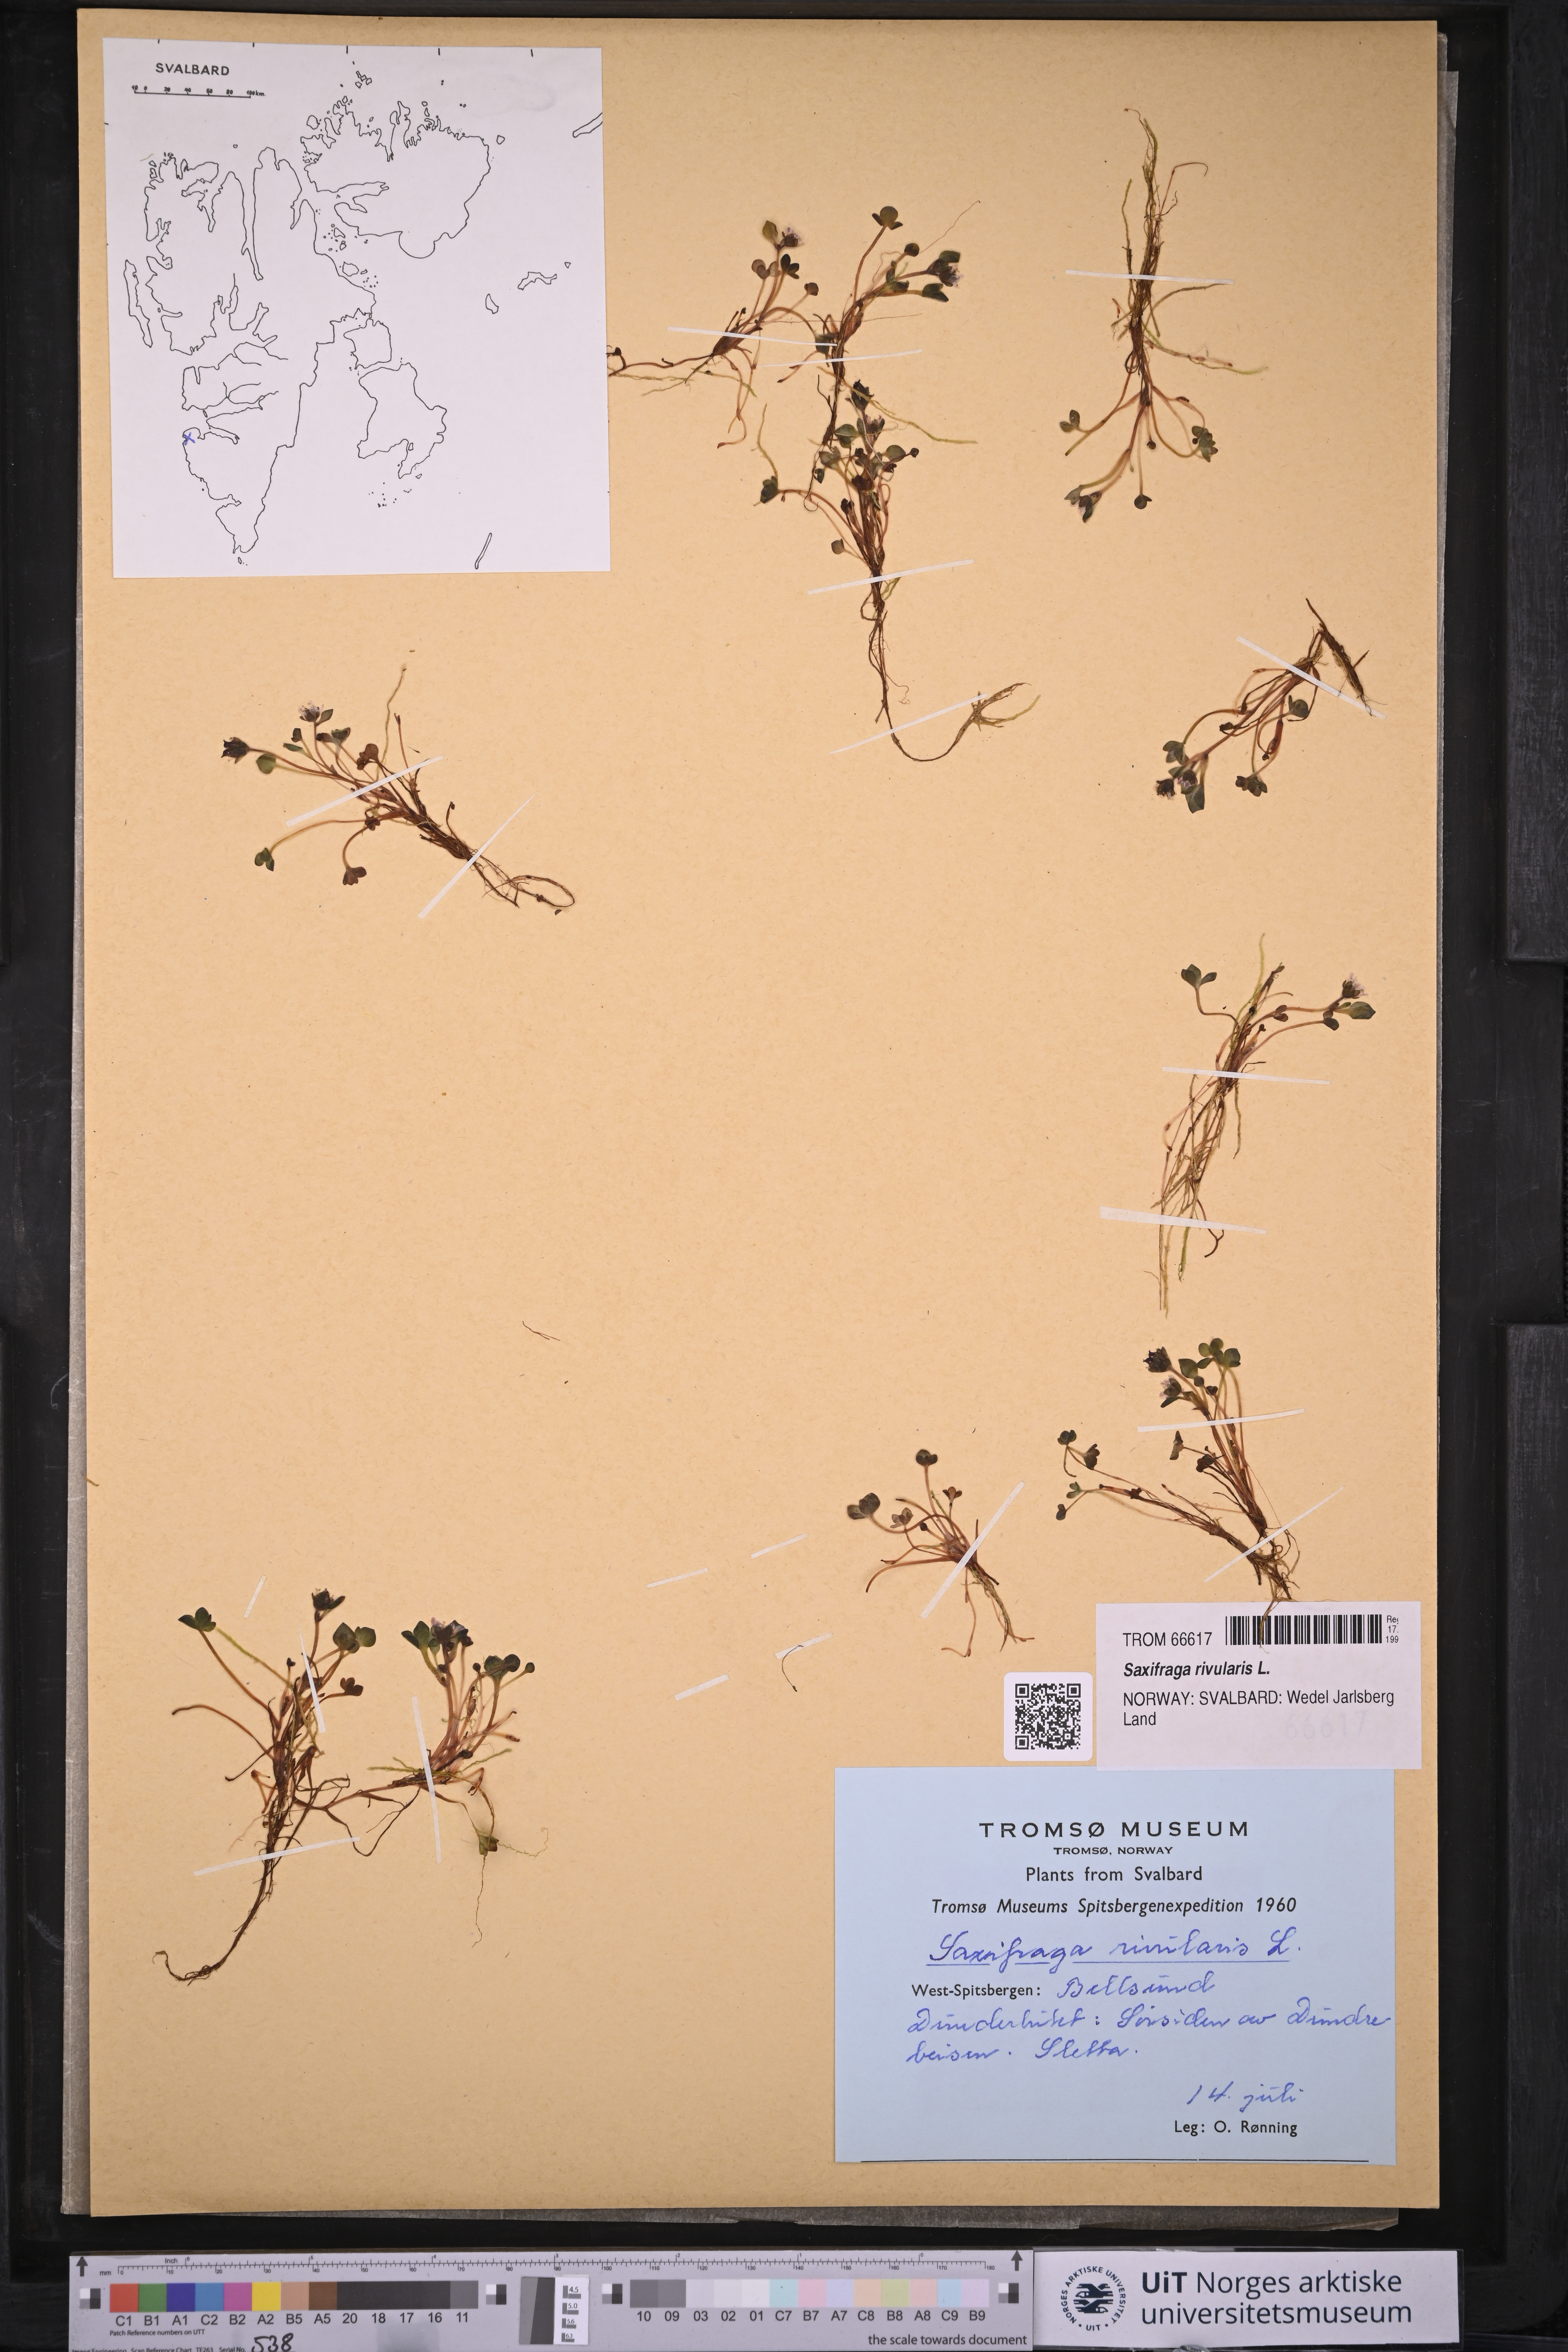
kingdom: Plantae
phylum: Tracheophyta
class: Magnoliopsida
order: Saxifragales
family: Saxifragaceae
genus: Saxifraga
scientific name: Saxifraga rivularis
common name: Highland saxifrage
